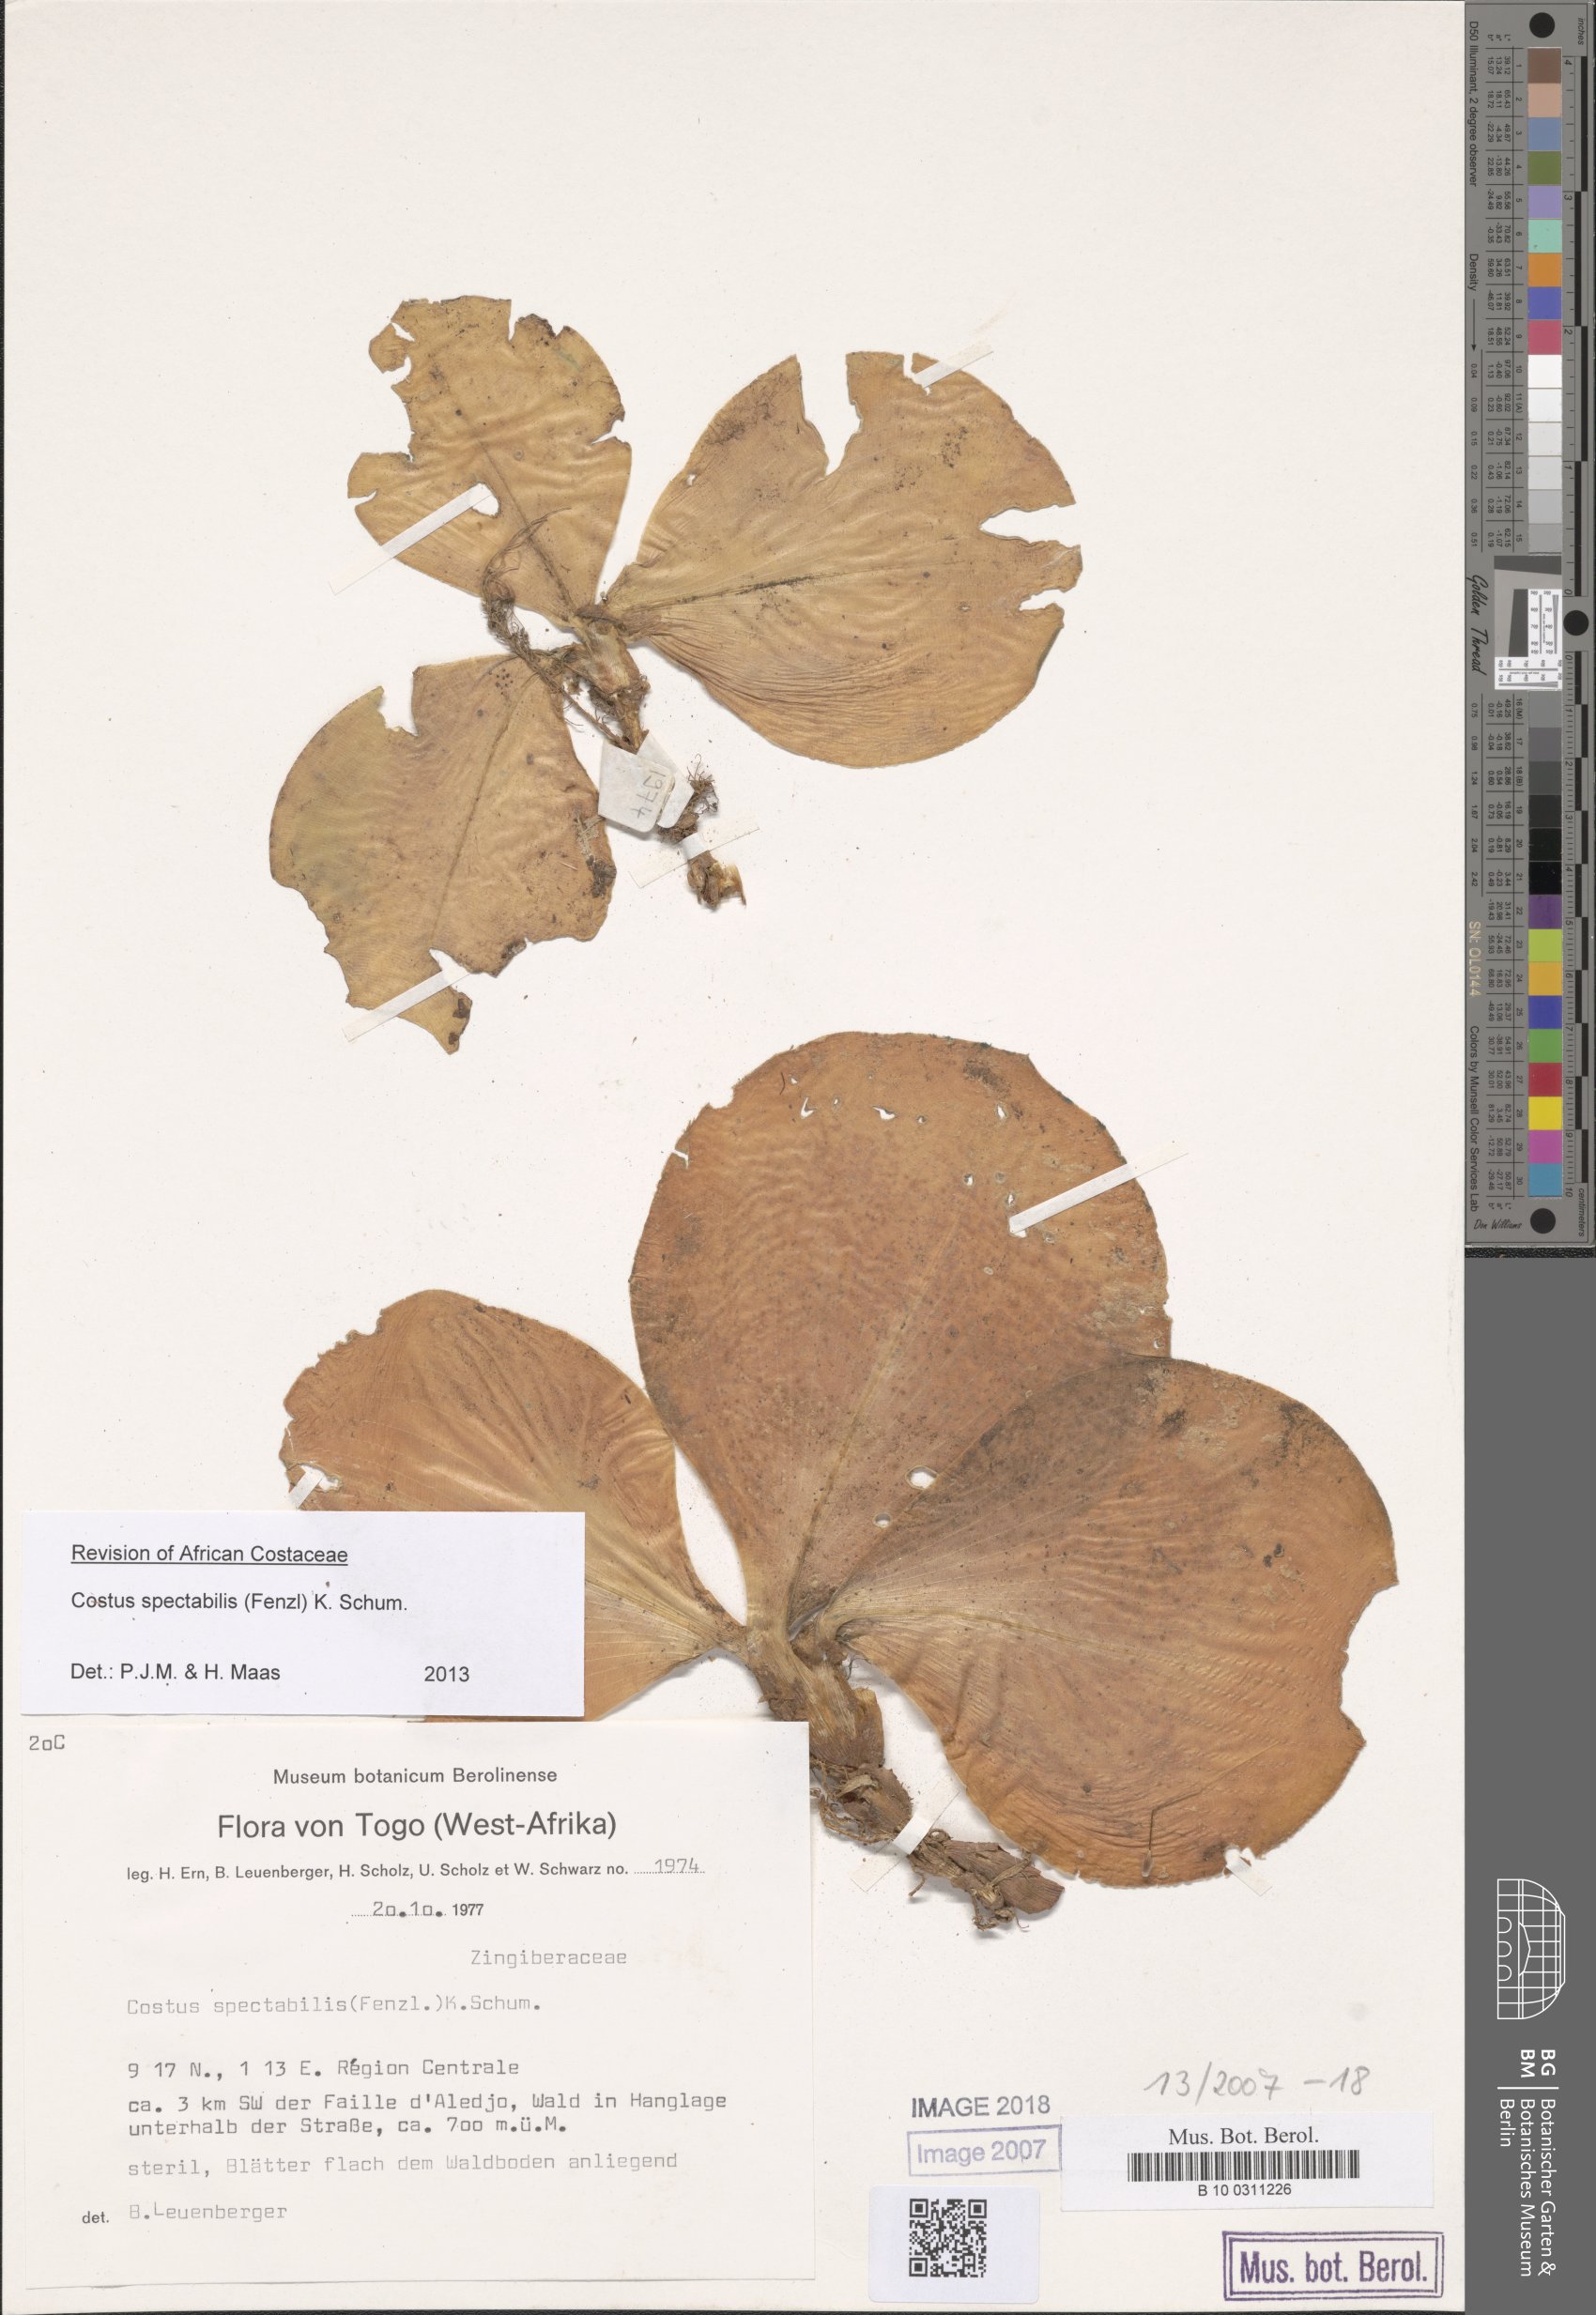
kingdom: Plantae
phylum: Tracheophyta
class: Liliopsida
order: Zingiberales
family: Costaceae
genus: Costus
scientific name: Costus spectabilis
